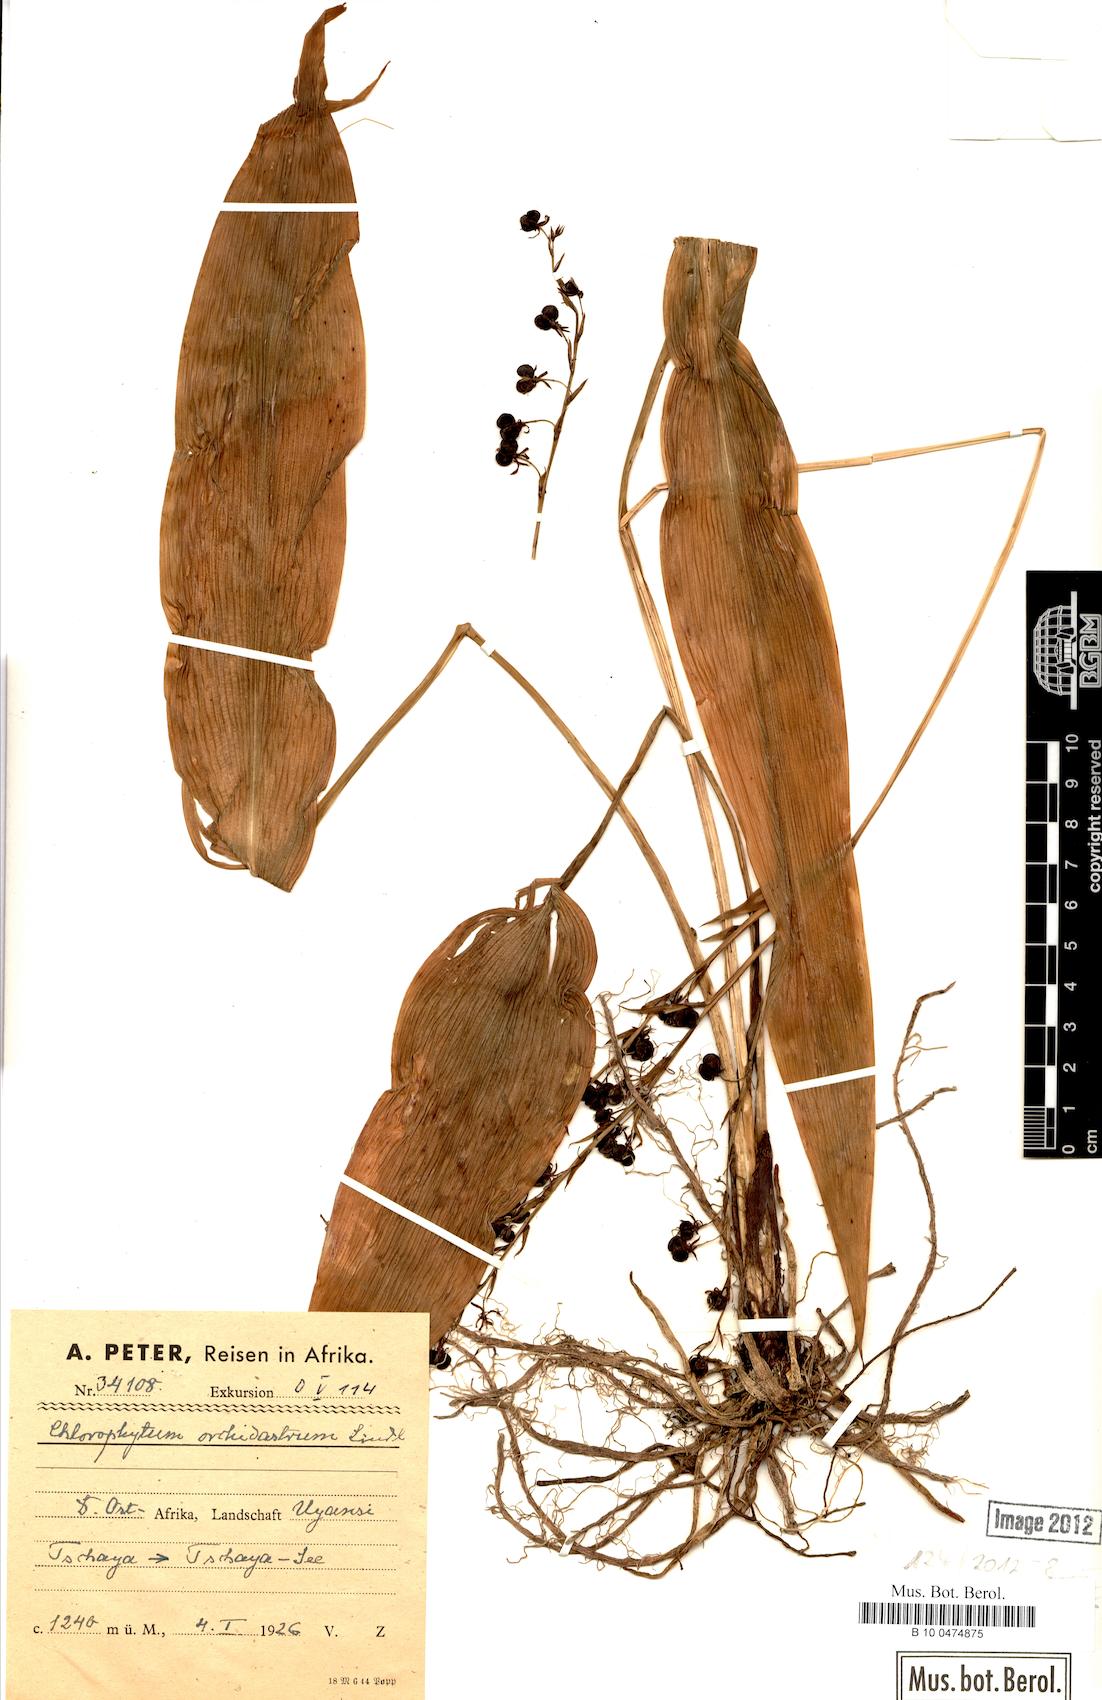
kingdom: Plantae
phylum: Tracheophyta
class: Liliopsida
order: Asparagales
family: Asparagaceae
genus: Chlorophytum
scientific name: Chlorophytum orchidastrum
